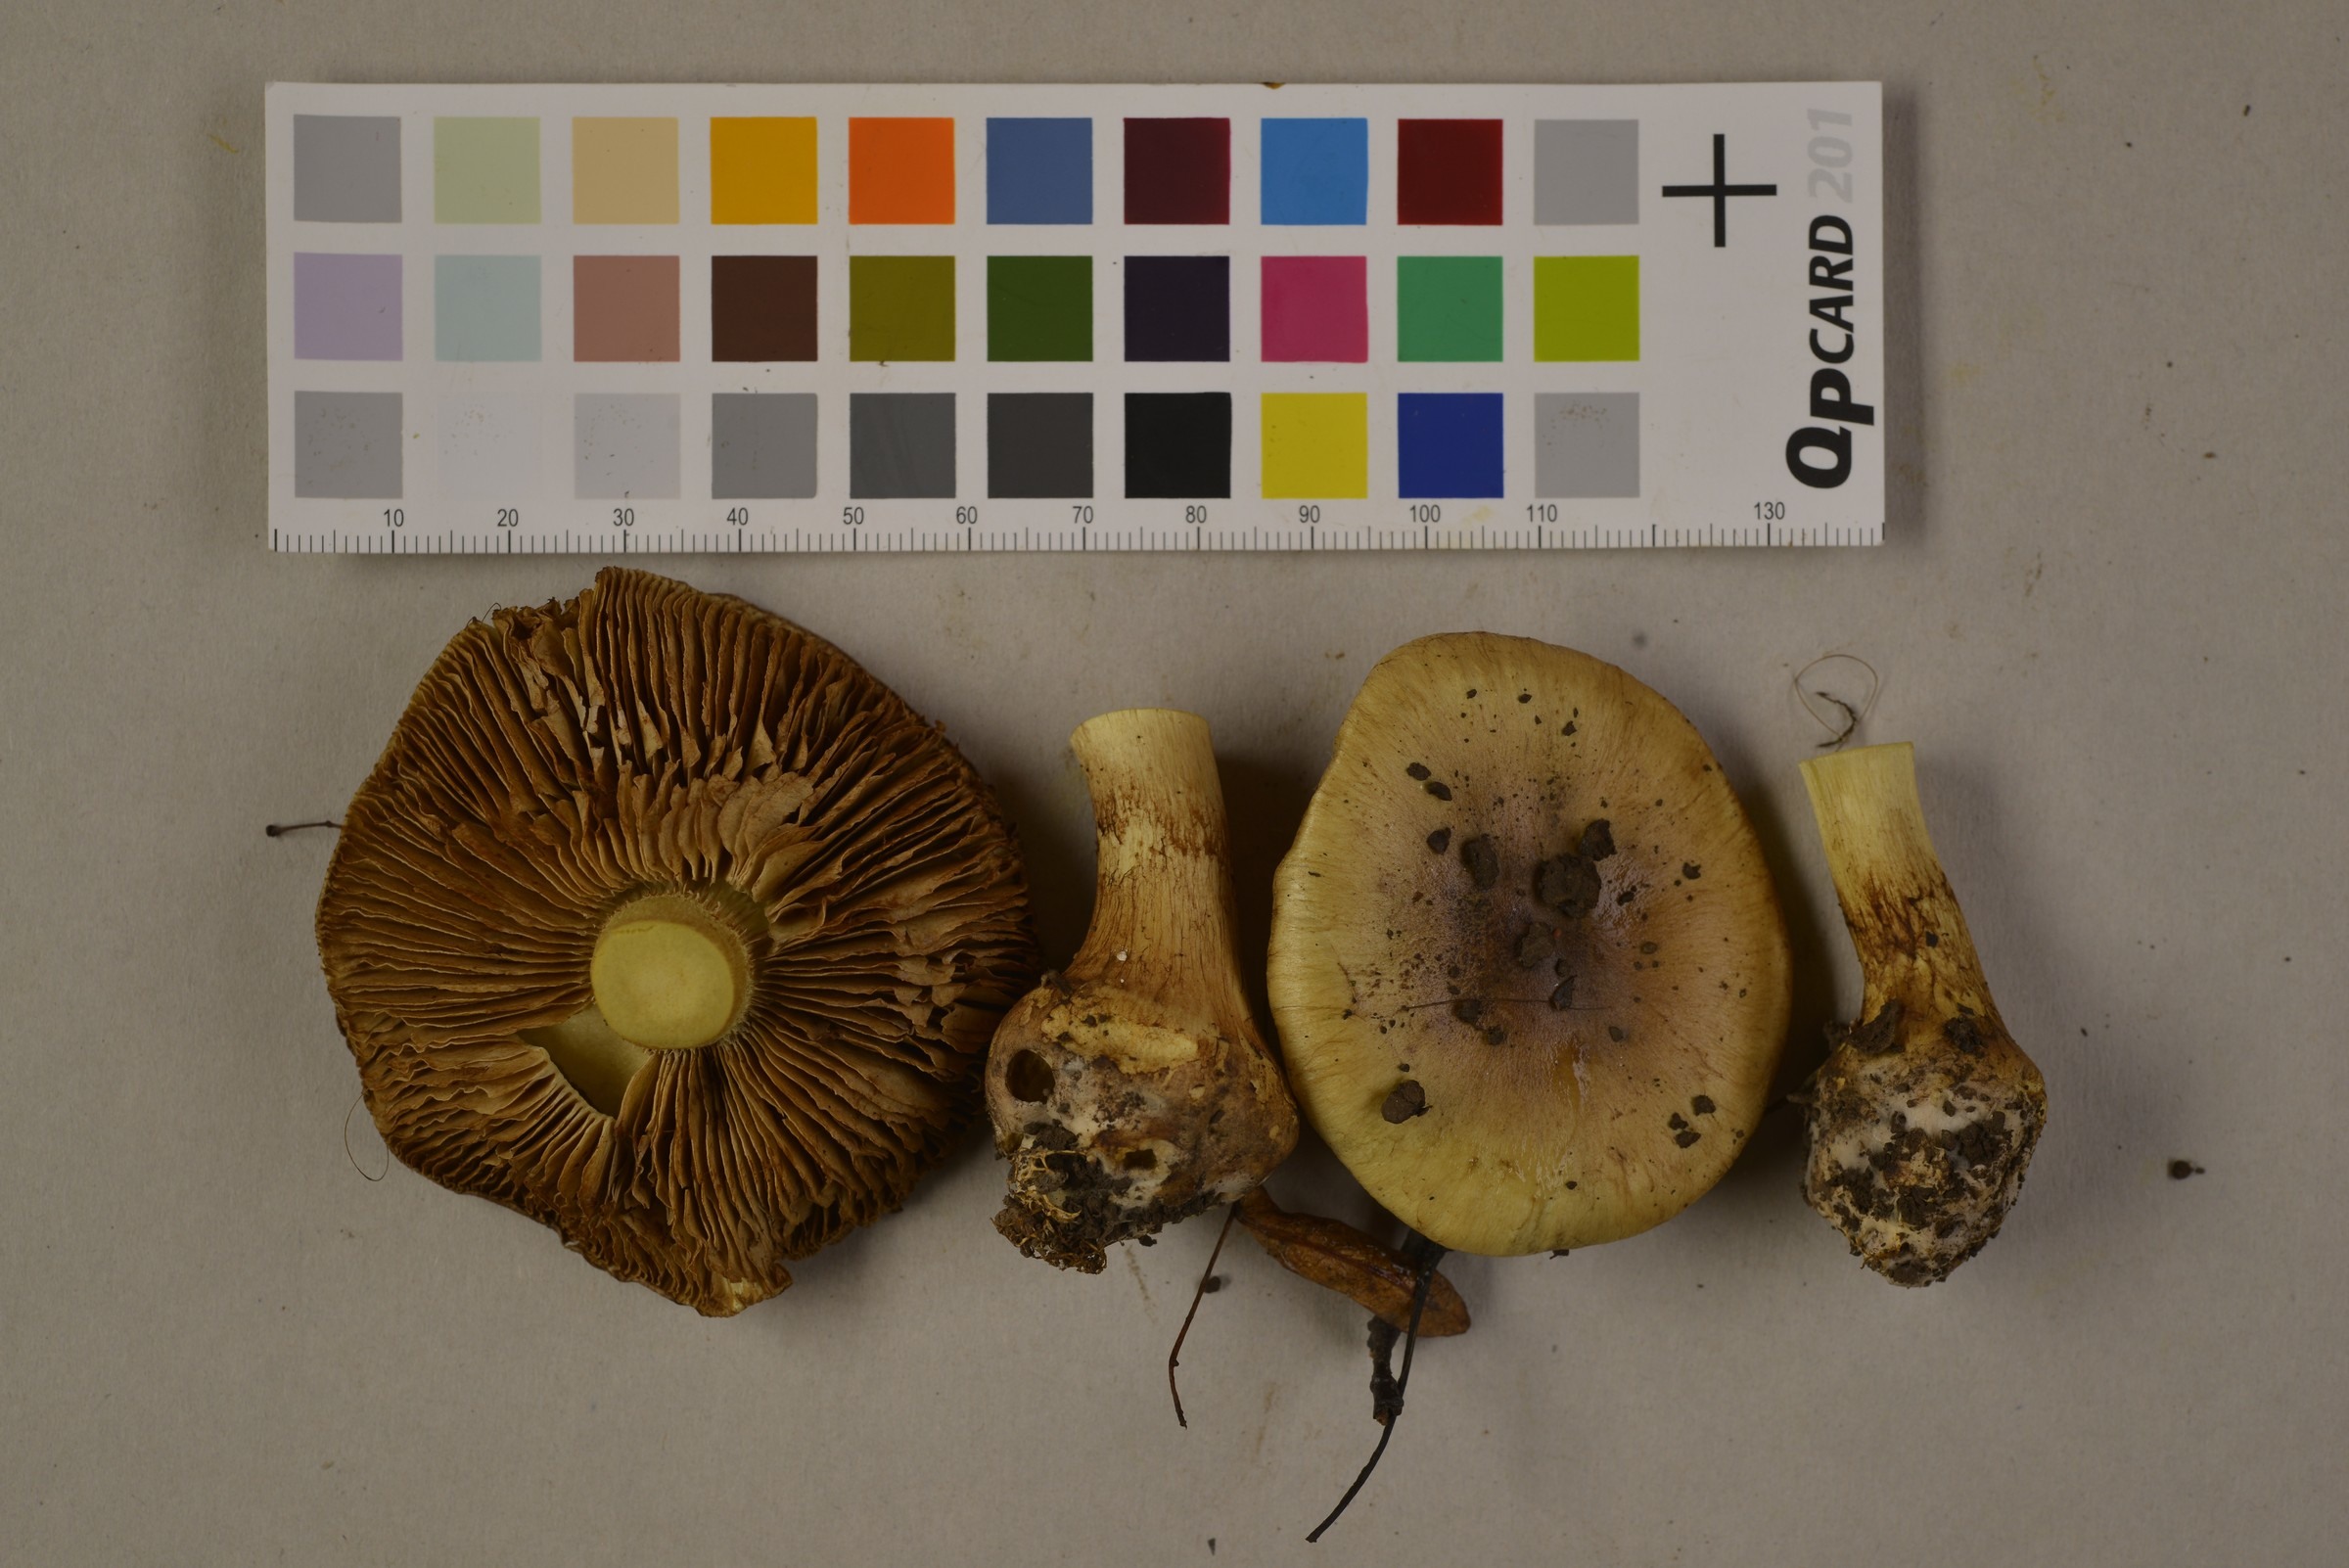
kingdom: Fungi
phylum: Basidiomycota
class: Agaricomycetes
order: Agaricales
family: Cortinariaceae
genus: Phlegmacium
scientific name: Phlegmacium stjernegaardii
